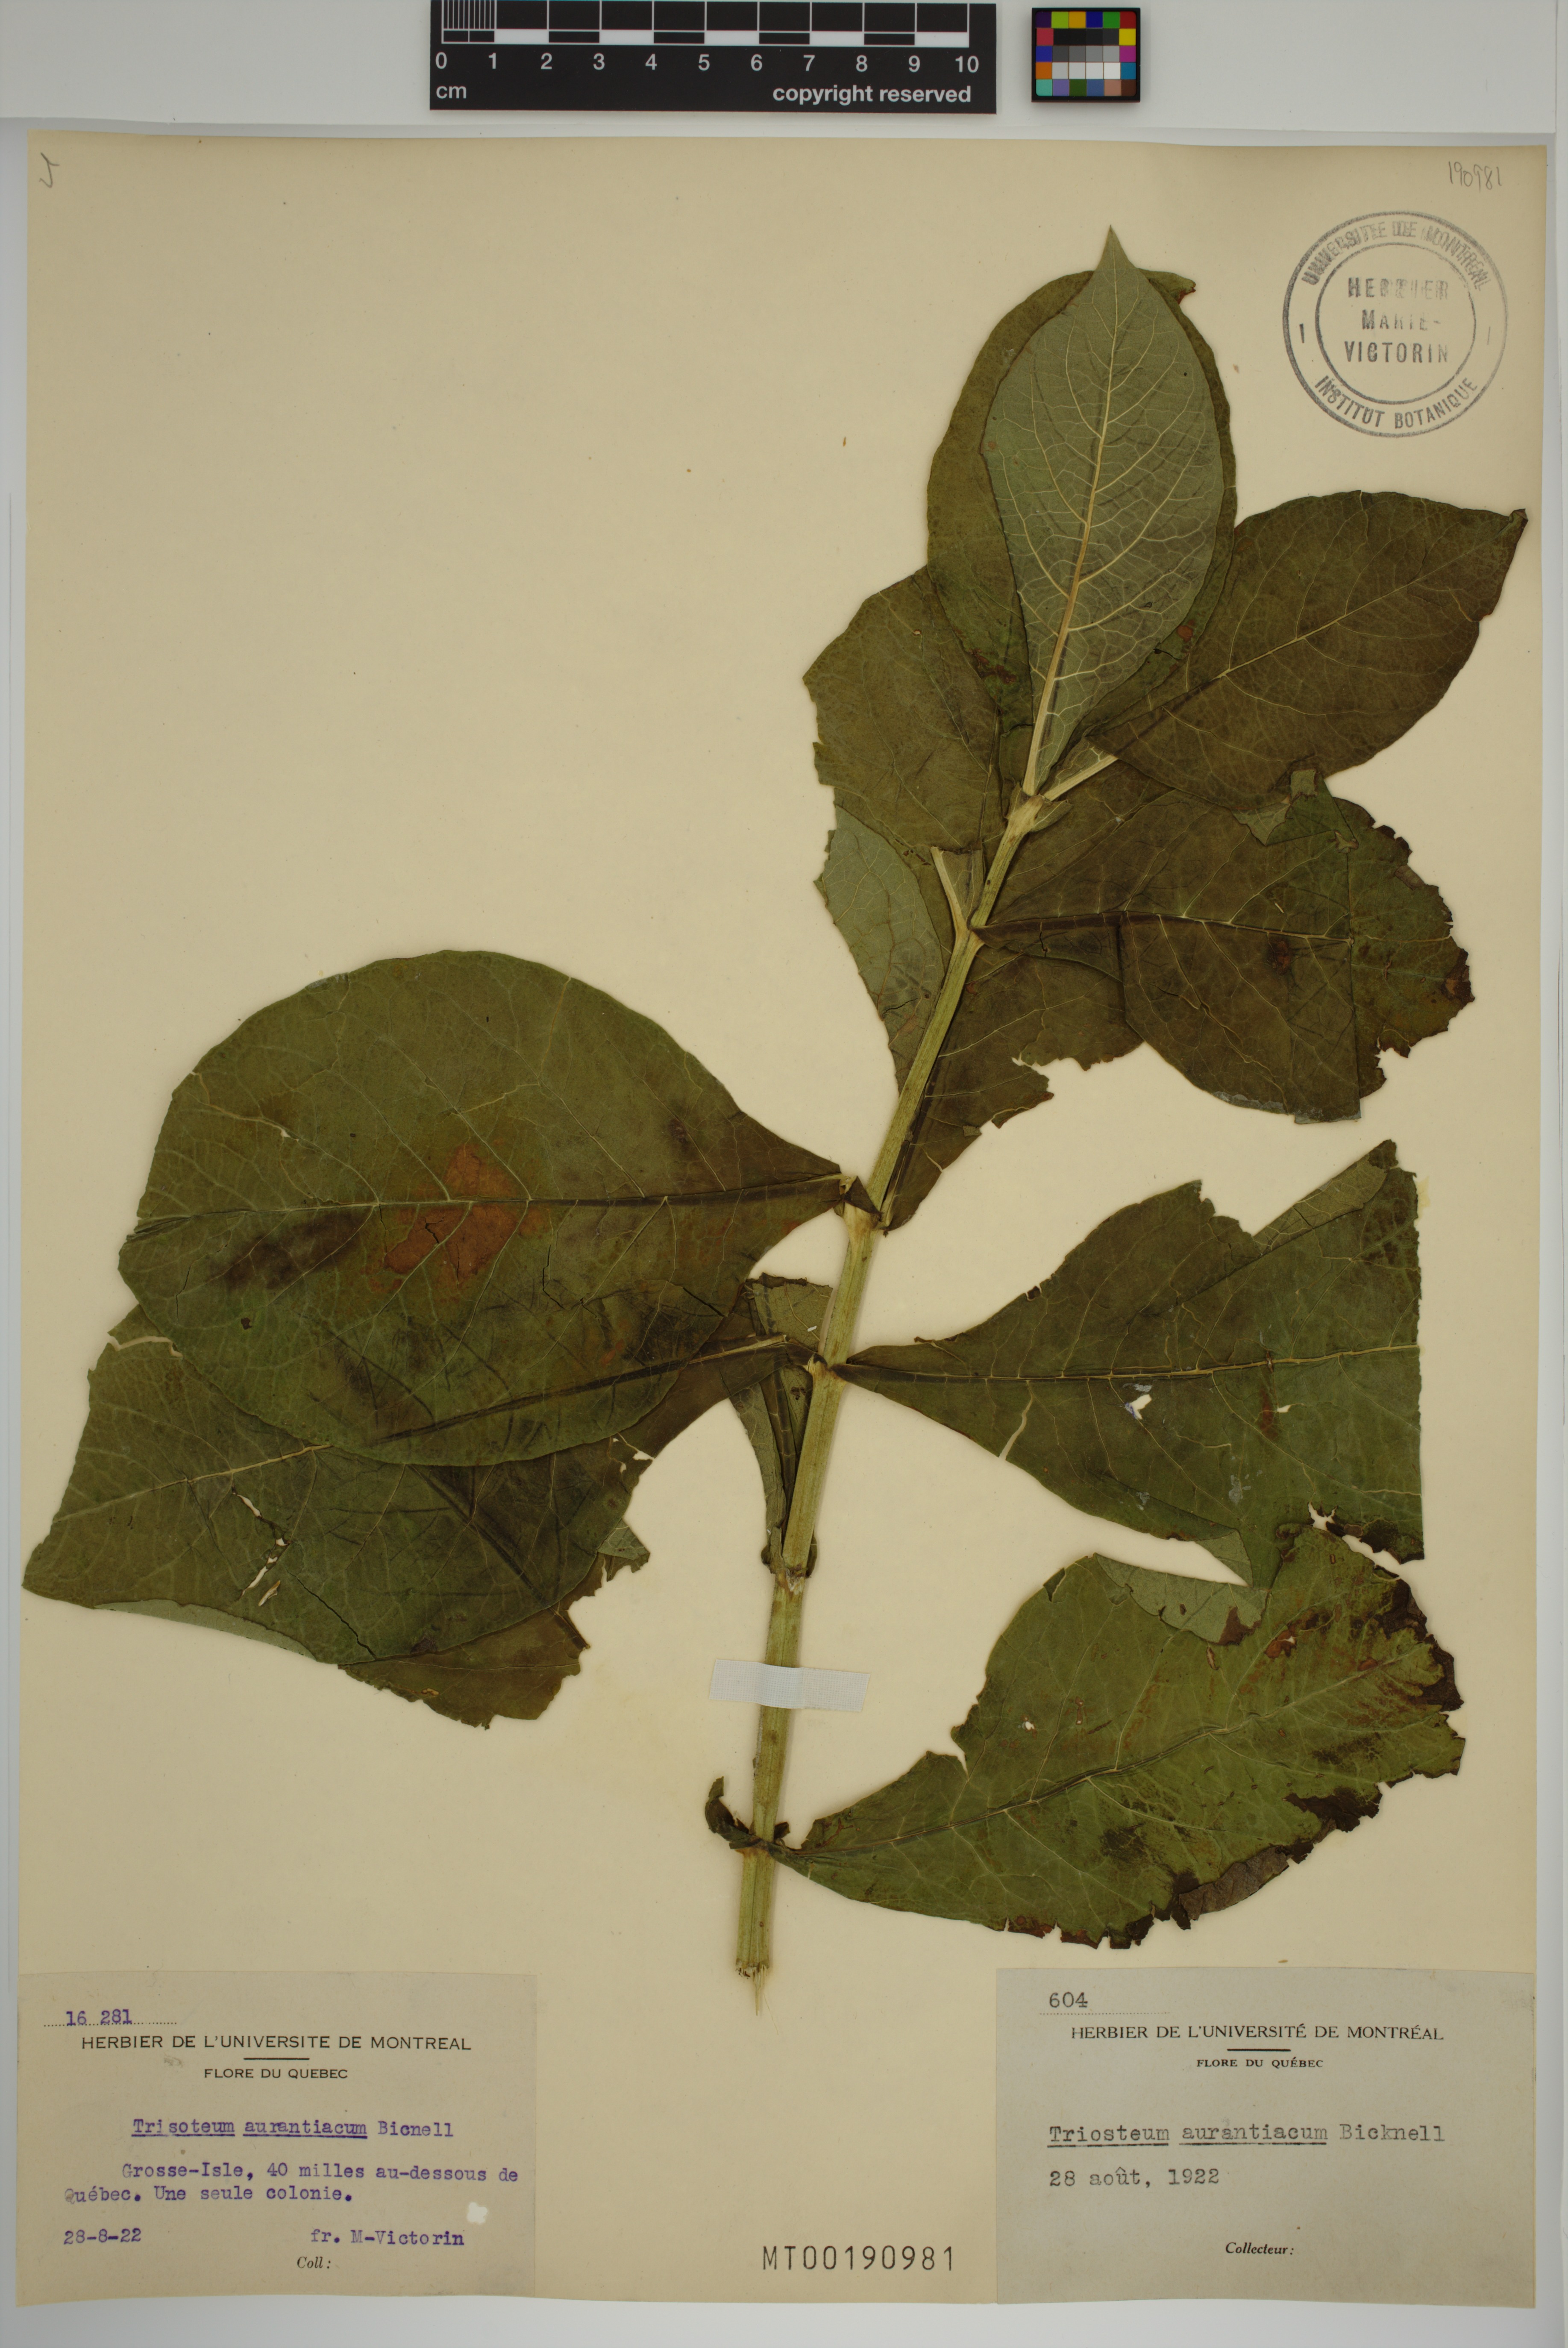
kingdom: Plantae
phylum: Tracheophyta
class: Magnoliopsida
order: Dipsacales
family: Caprifoliaceae
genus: Triosteum
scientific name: Triosteum aurantiacum
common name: Coffee tinker's-weed
